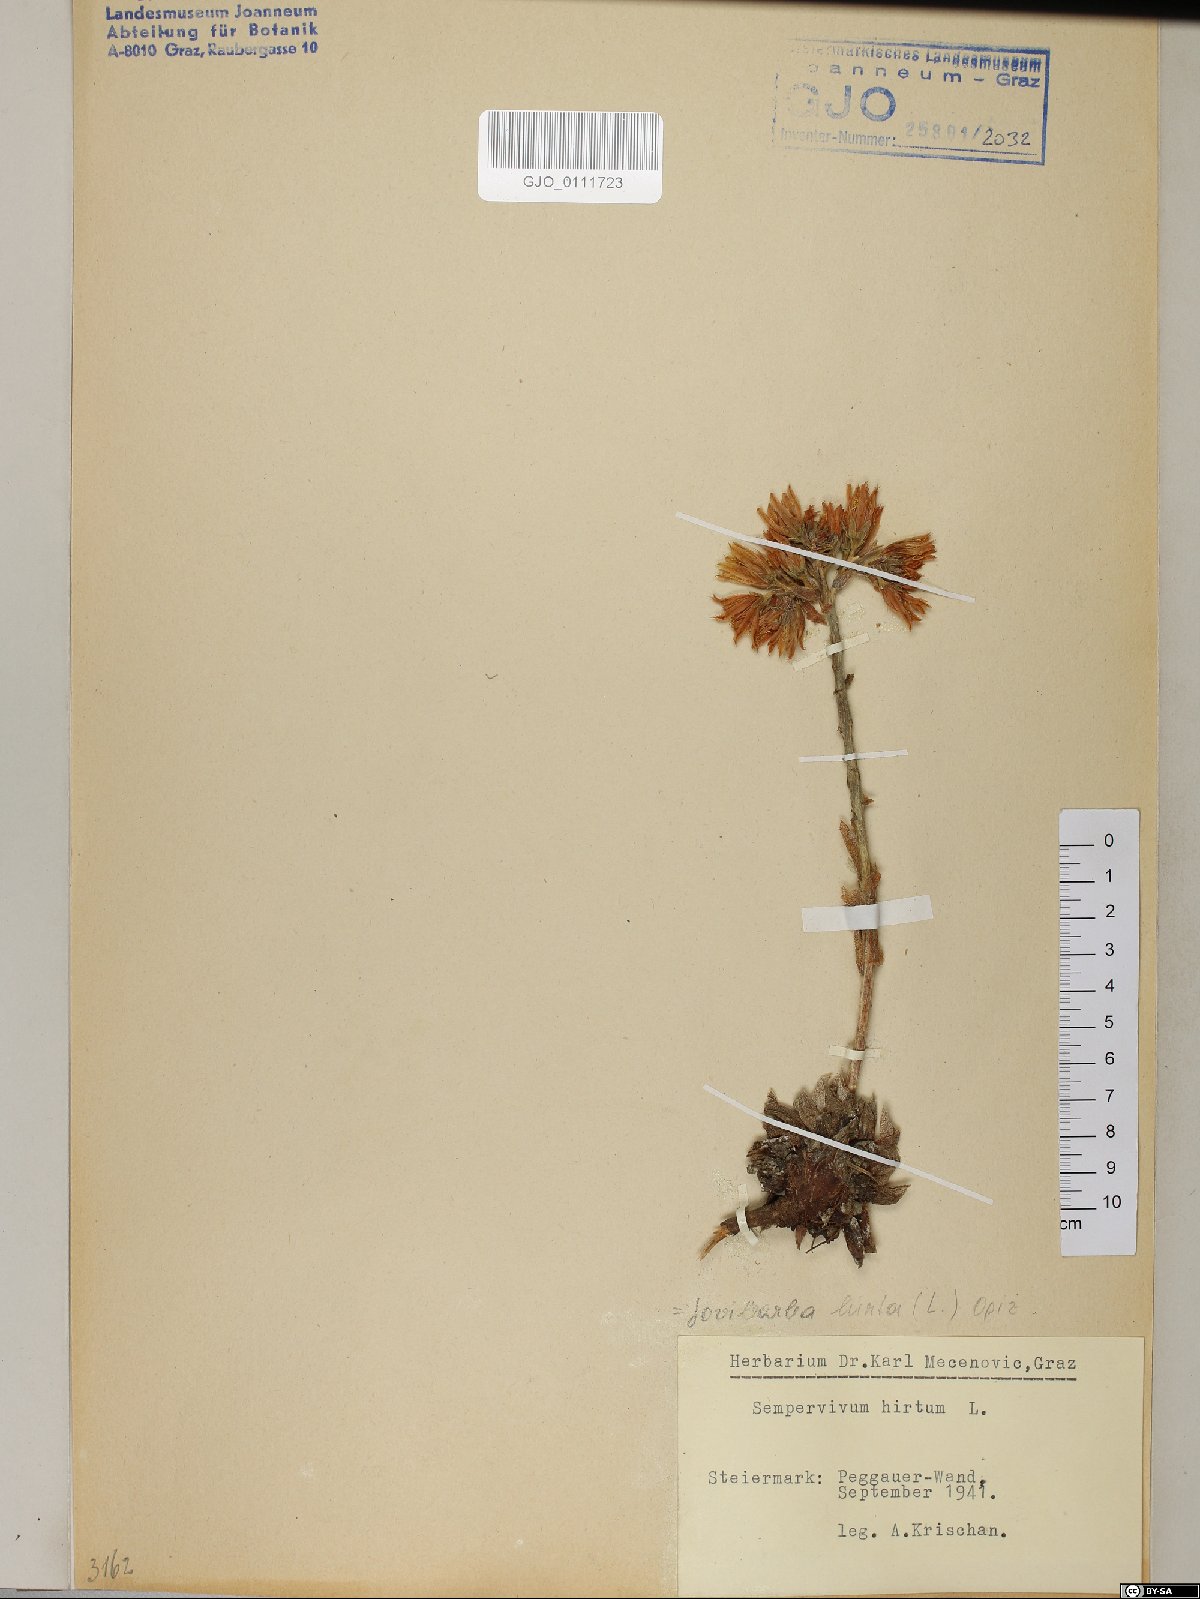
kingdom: Plantae
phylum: Tracheophyta
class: Magnoliopsida
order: Saxifragales
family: Crassulaceae
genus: Sempervivum
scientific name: Sempervivum globiferum
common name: Rolling hen-and-chicks
